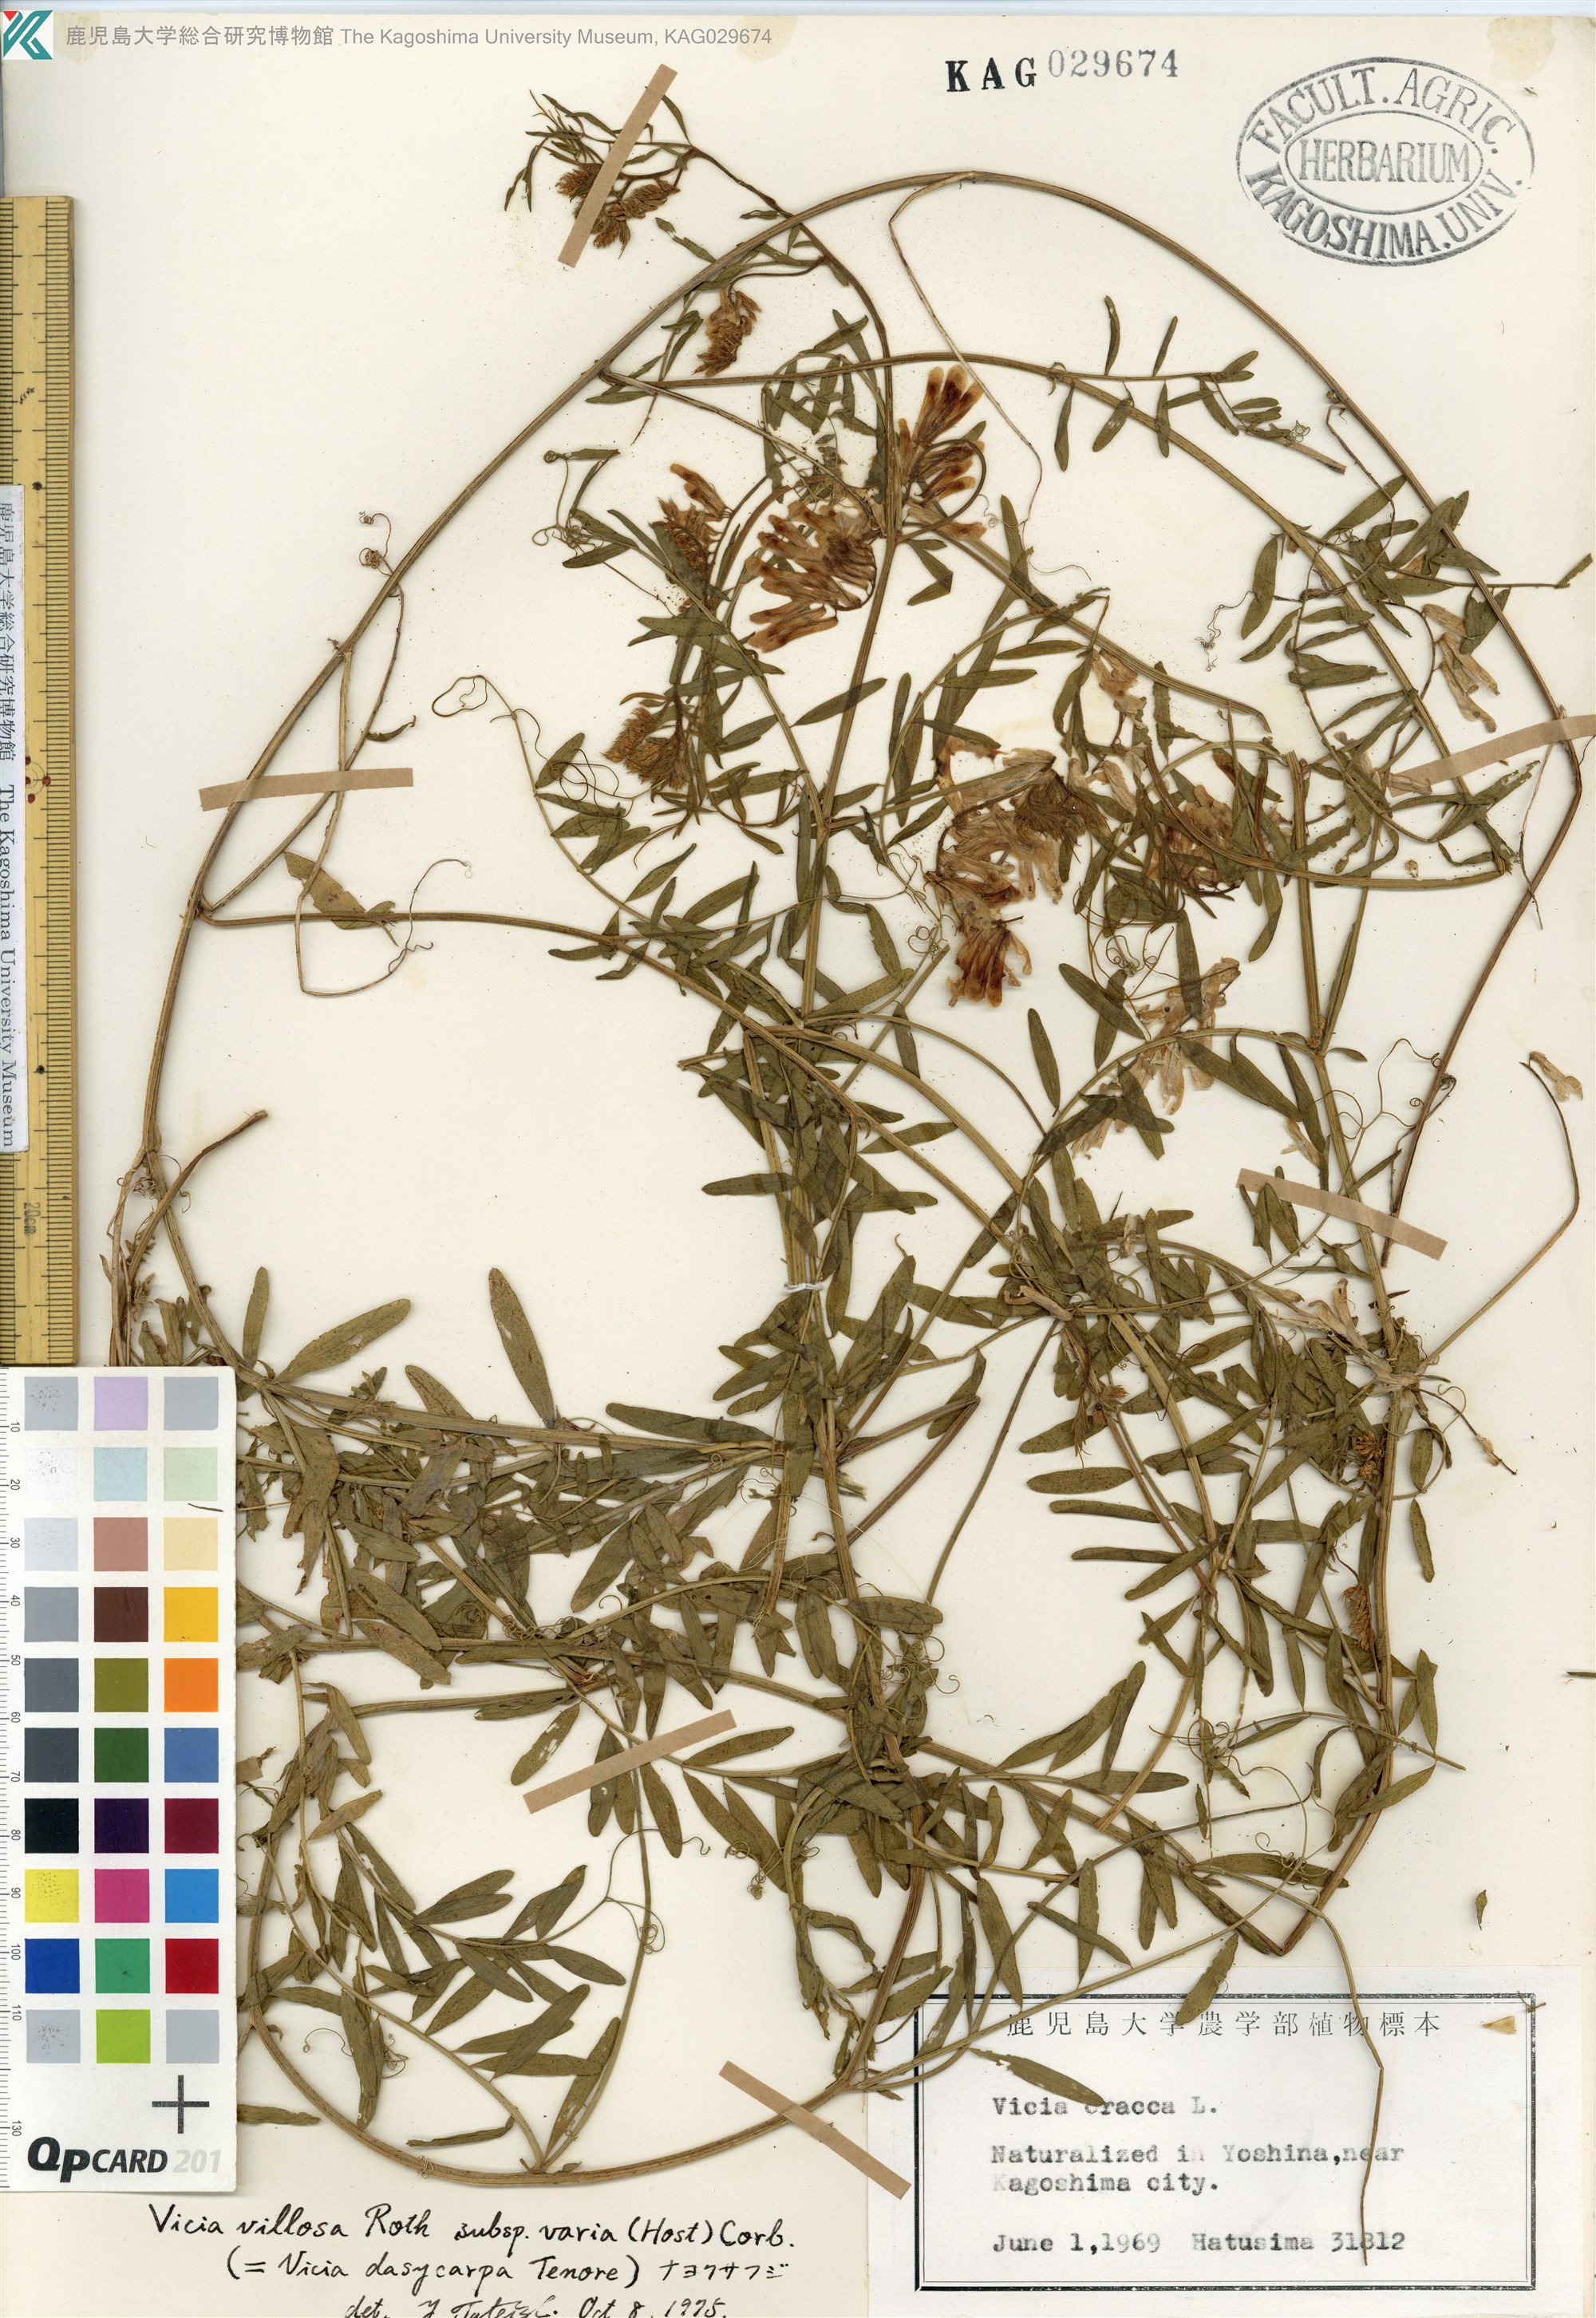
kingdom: Plantae
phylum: Tracheophyta
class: Magnoliopsida
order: Fabales
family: Fabaceae
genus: Vicia
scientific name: Vicia villosa
